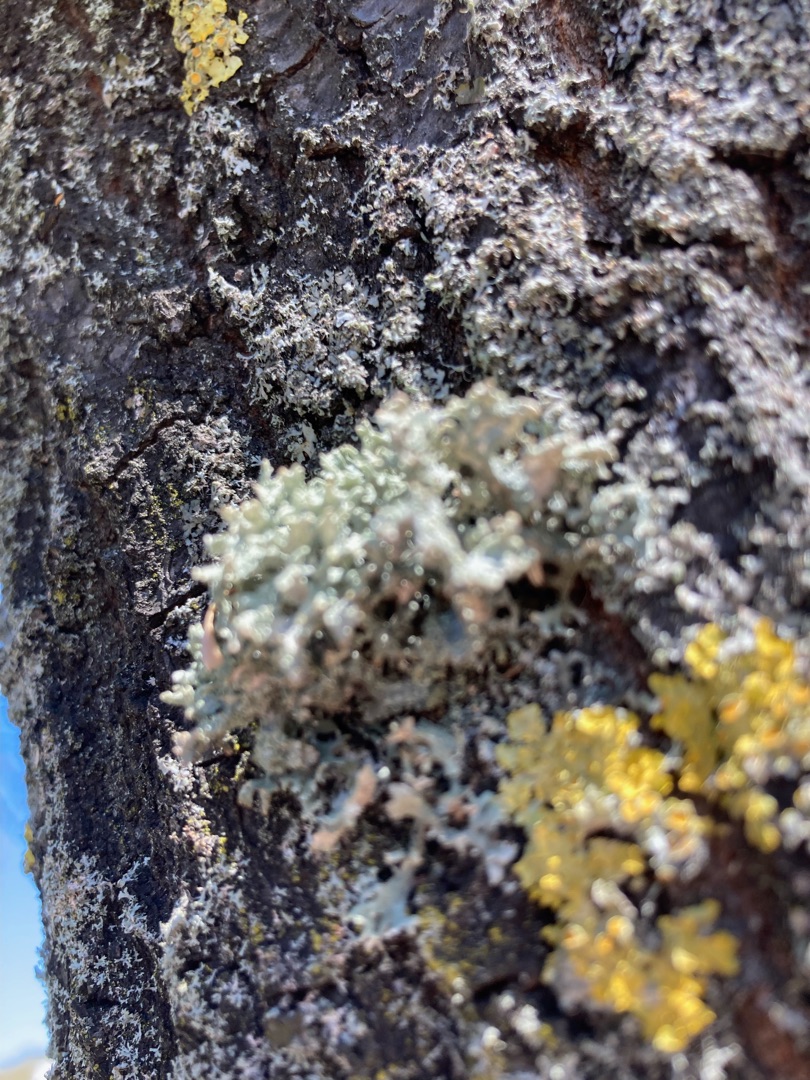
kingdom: Fungi
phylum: Ascomycota
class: Lecanoromycetes
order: Lecanorales
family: Parmeliaceae
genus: Evernia
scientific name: Evernia prunastri
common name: Almindelig slåenlav
